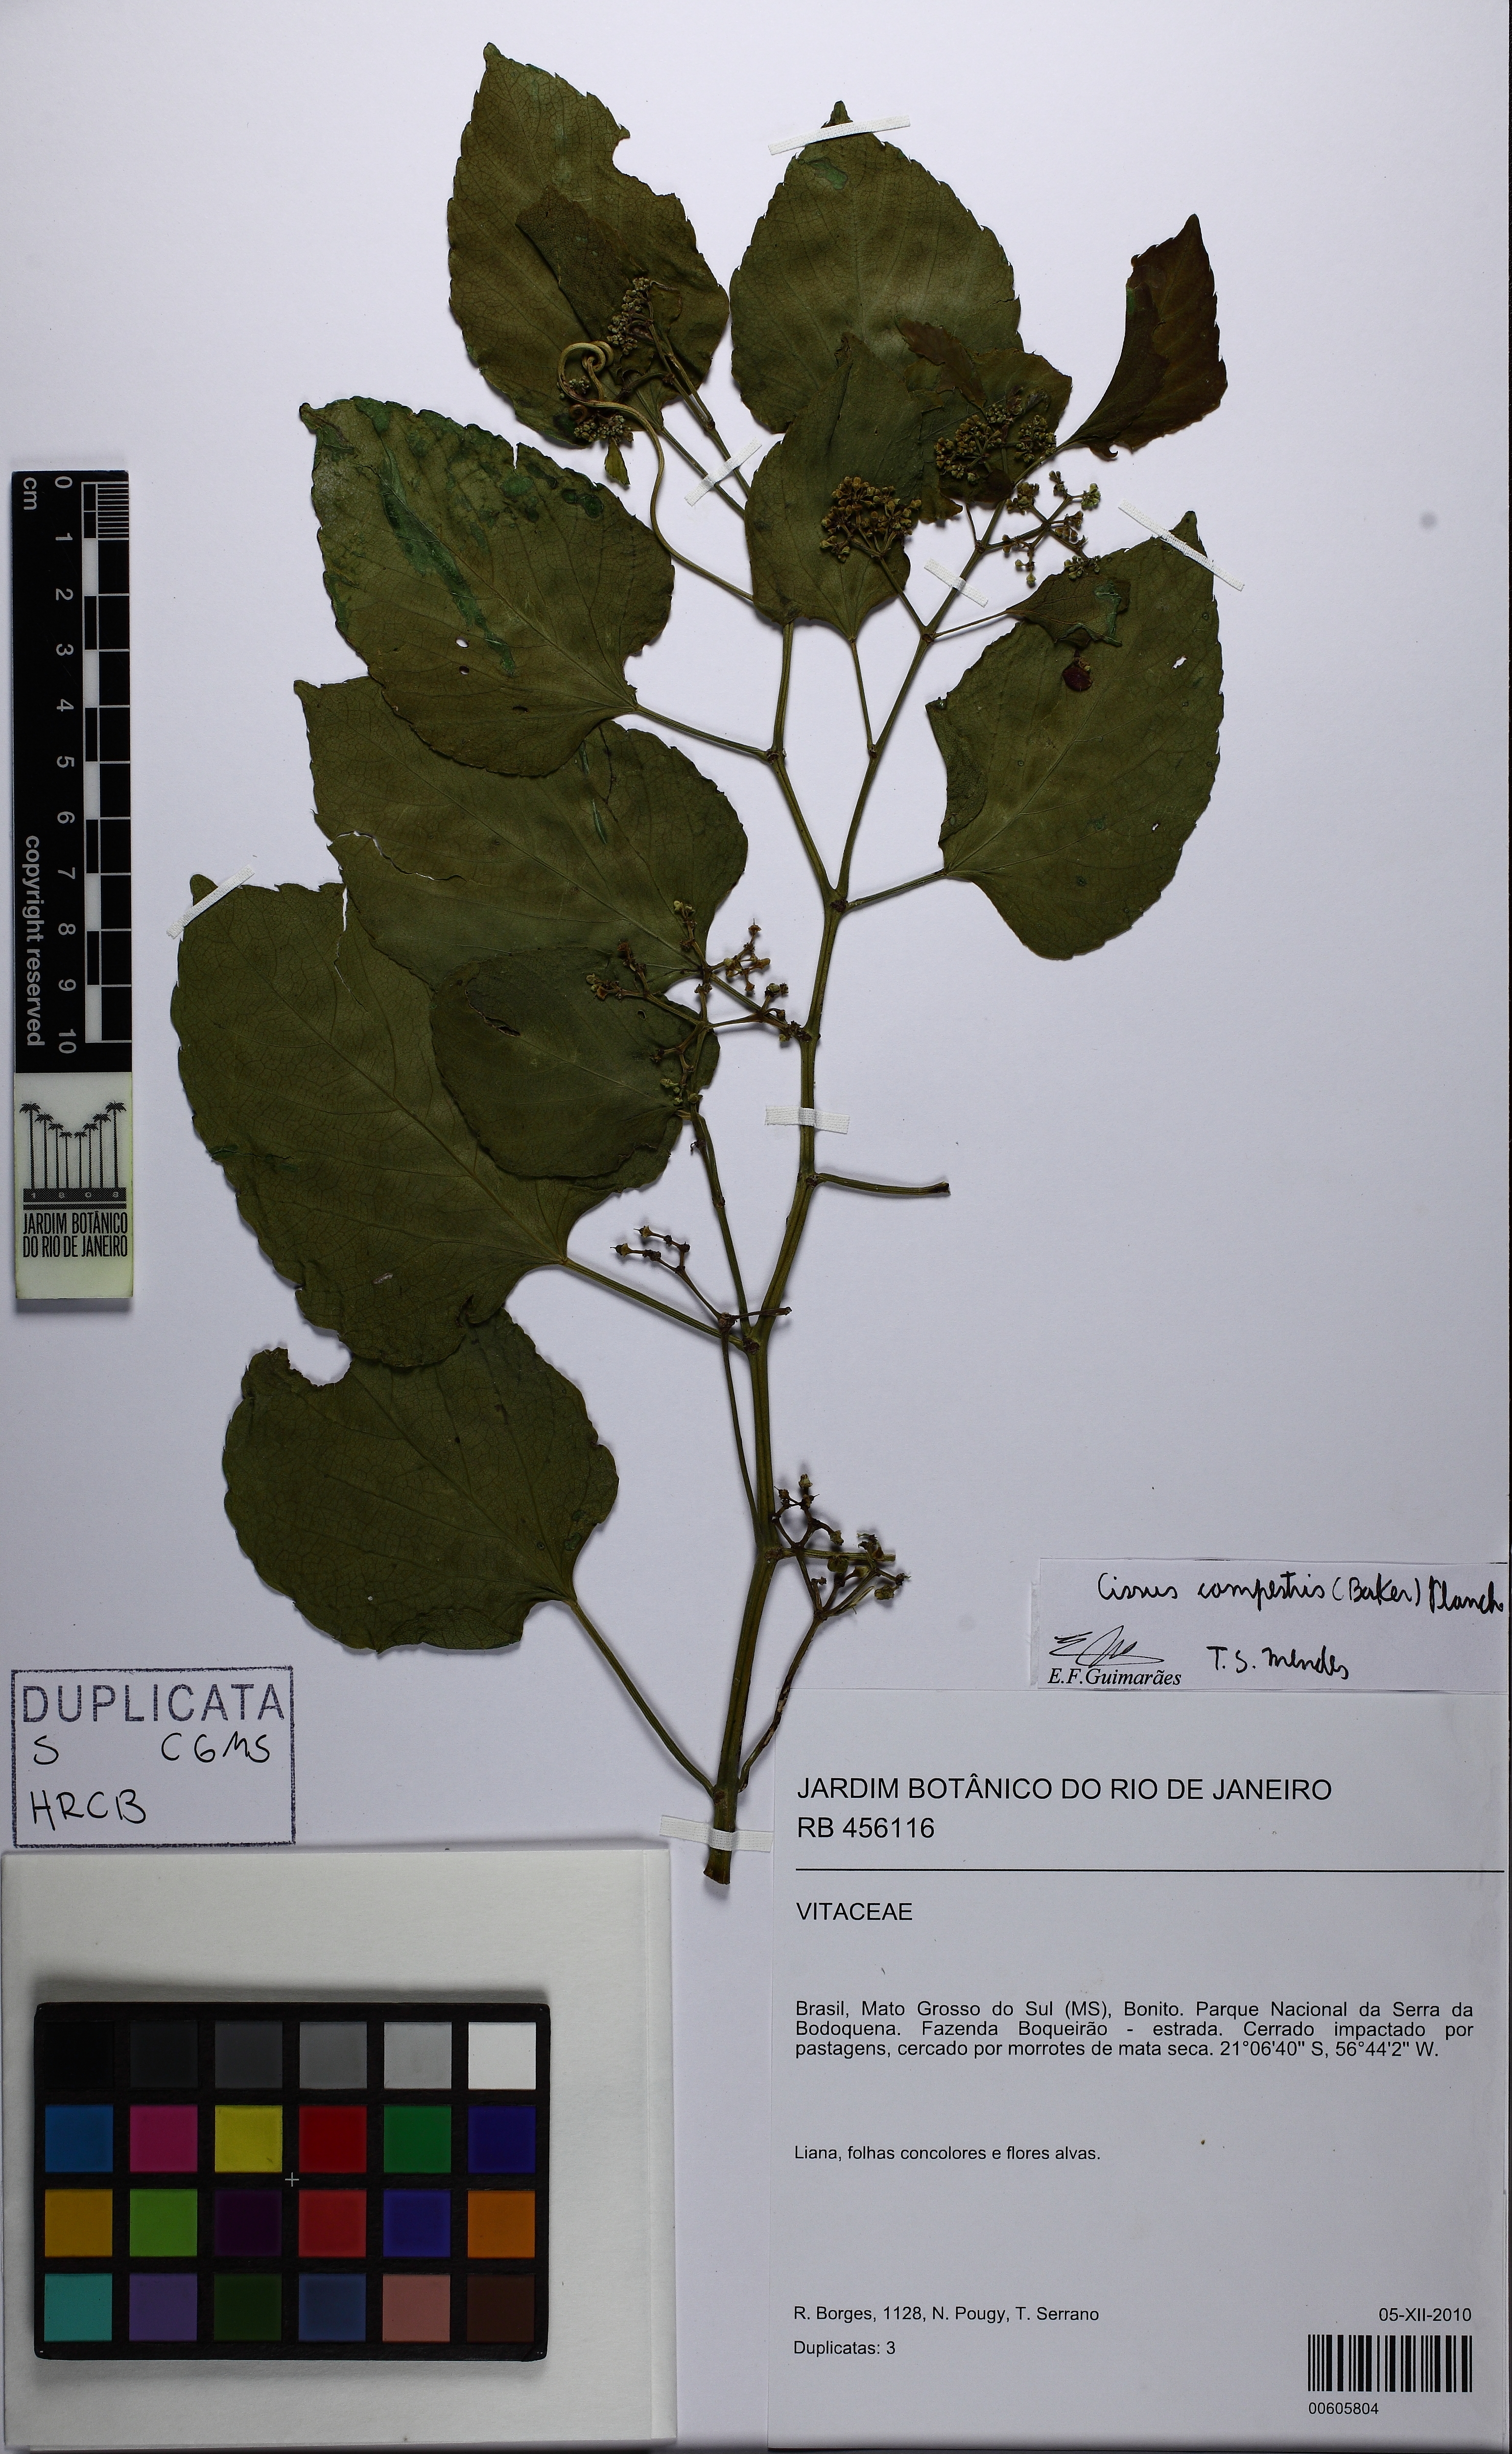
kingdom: Plantae
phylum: Tracheophyta
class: Magnoliopsida
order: Vitales
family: Vitaceae
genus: Cissus
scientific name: Cissus verticillata
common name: Princess vine
